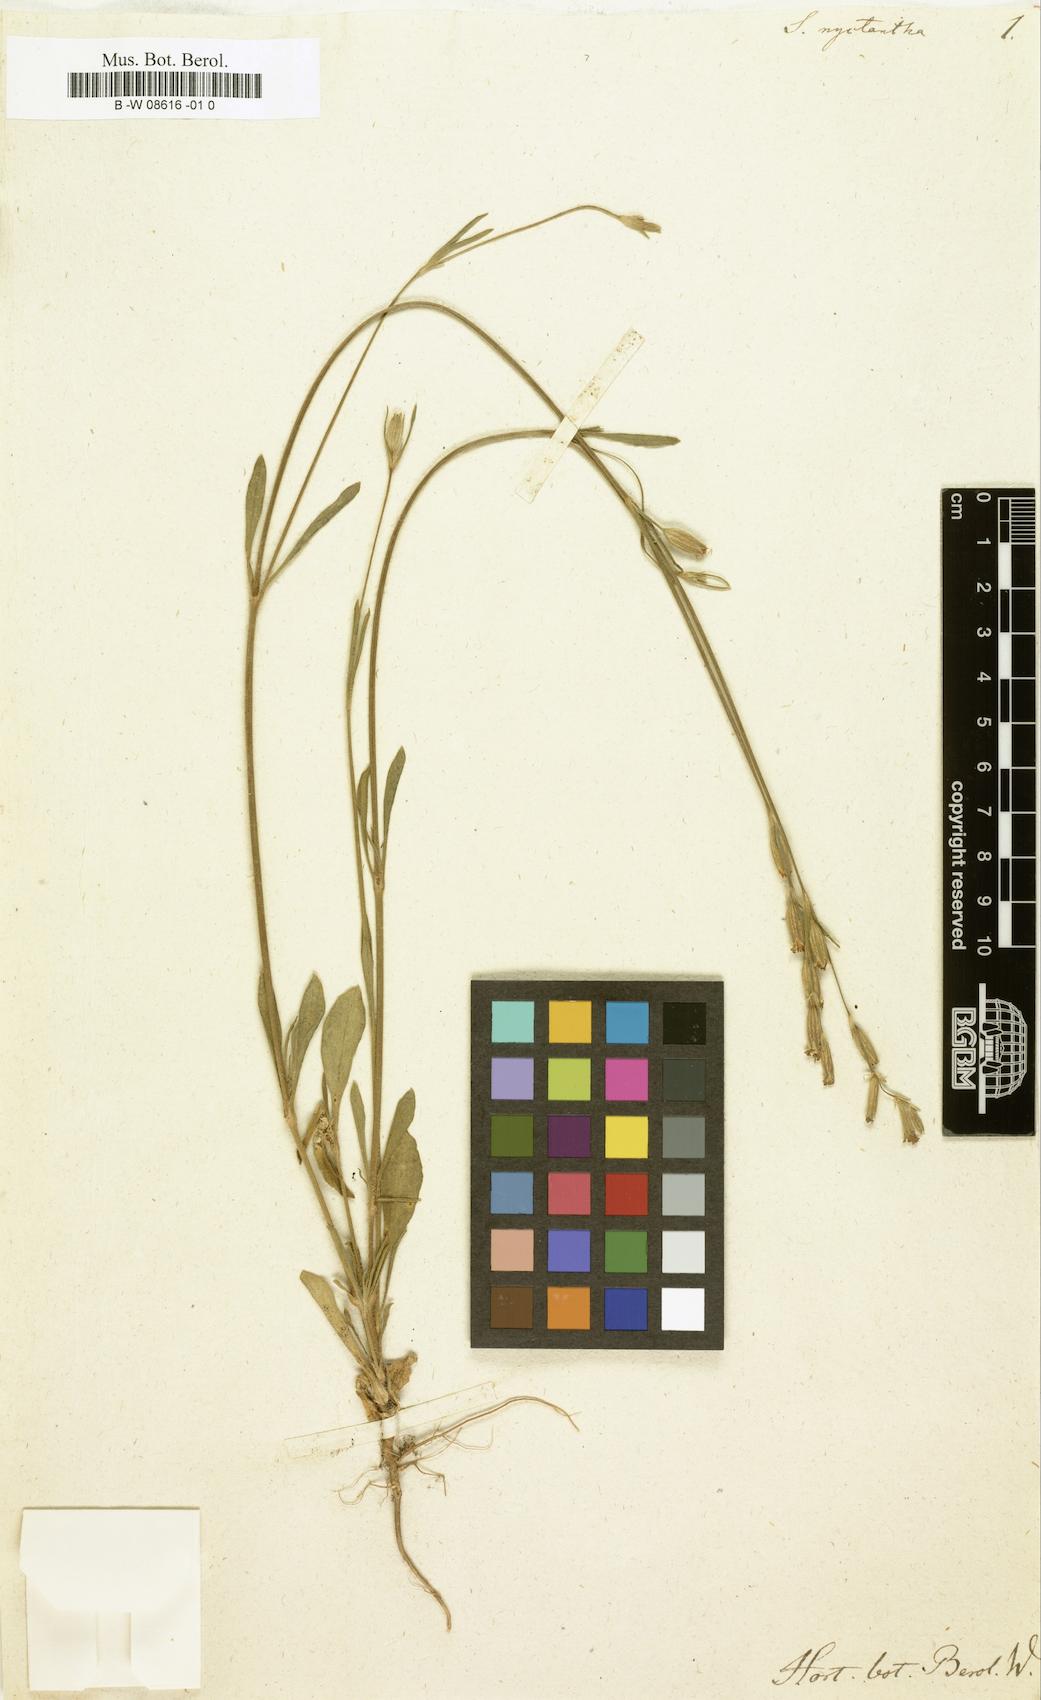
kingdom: Plantae
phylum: Tracheophyta
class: Magnoliopsida
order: Caryophyllales
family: Caryophyllaceae
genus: Silene
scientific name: Silene
